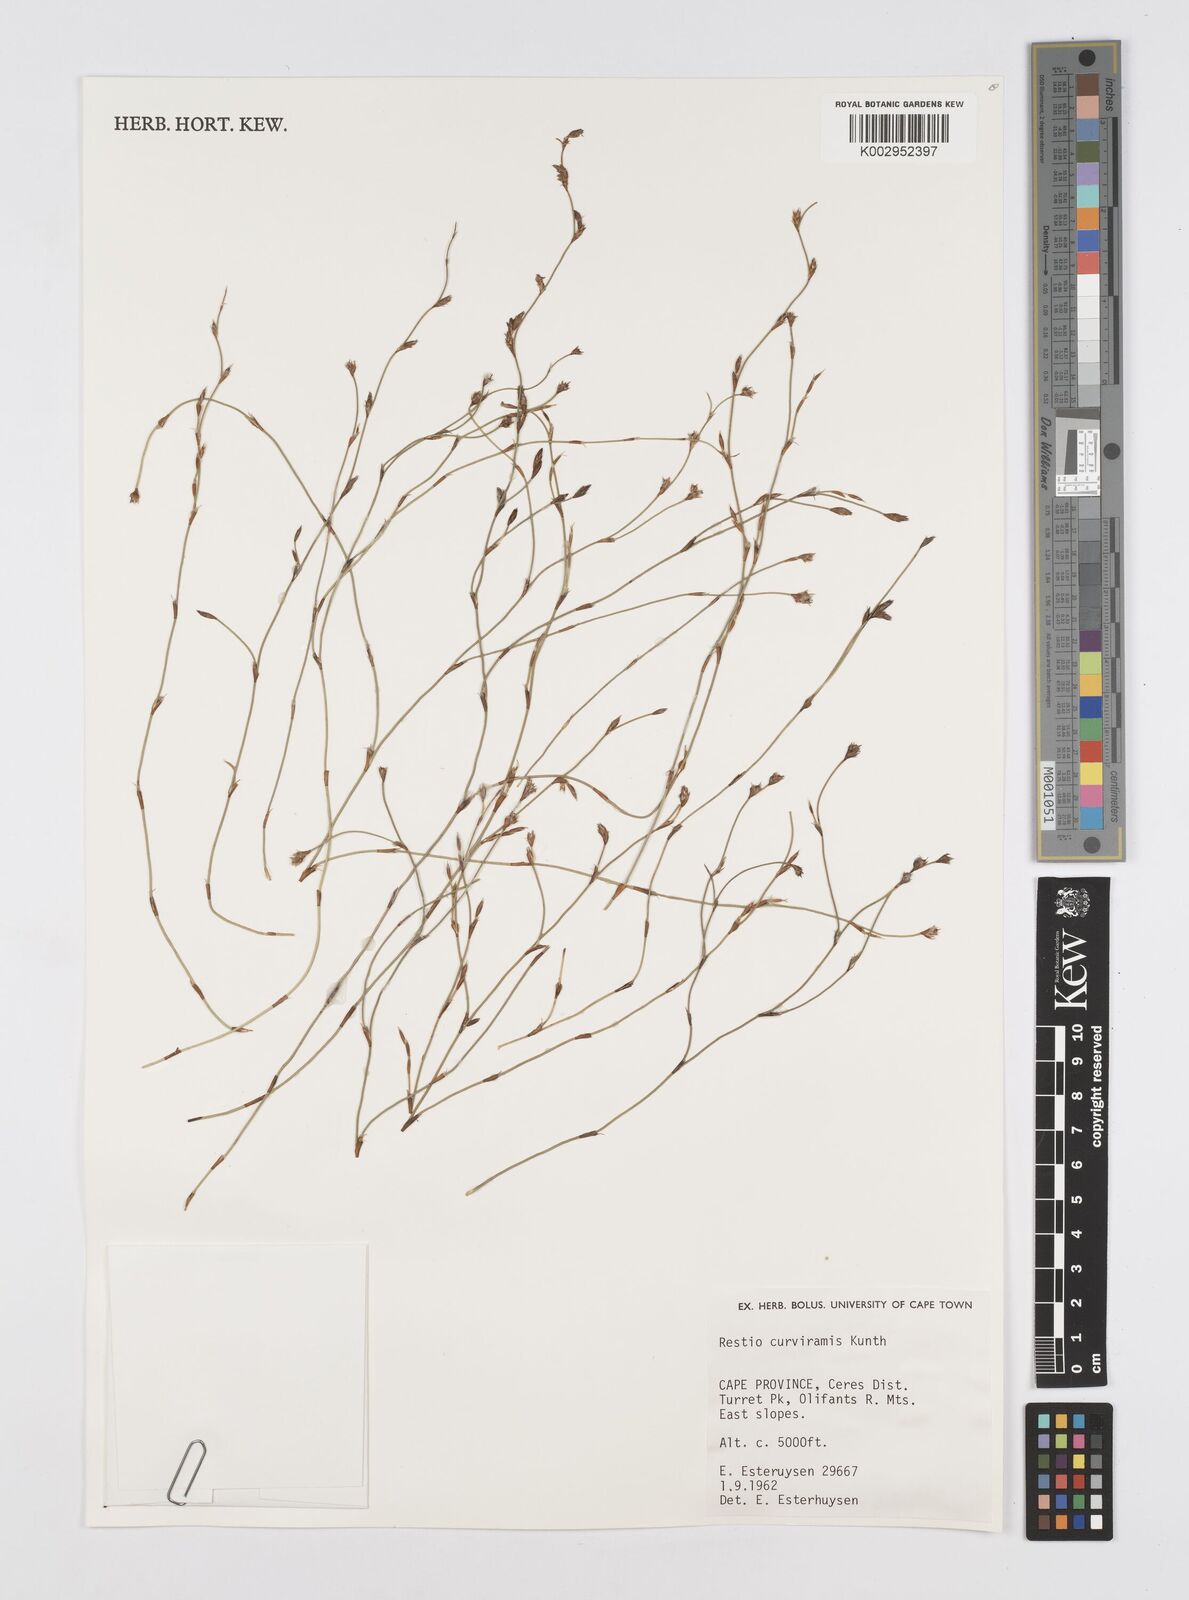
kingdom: Plantae
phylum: Tracheophyta
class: Liliopsida
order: Poales
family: Restionaceae
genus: Restio
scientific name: Restio curviramis
